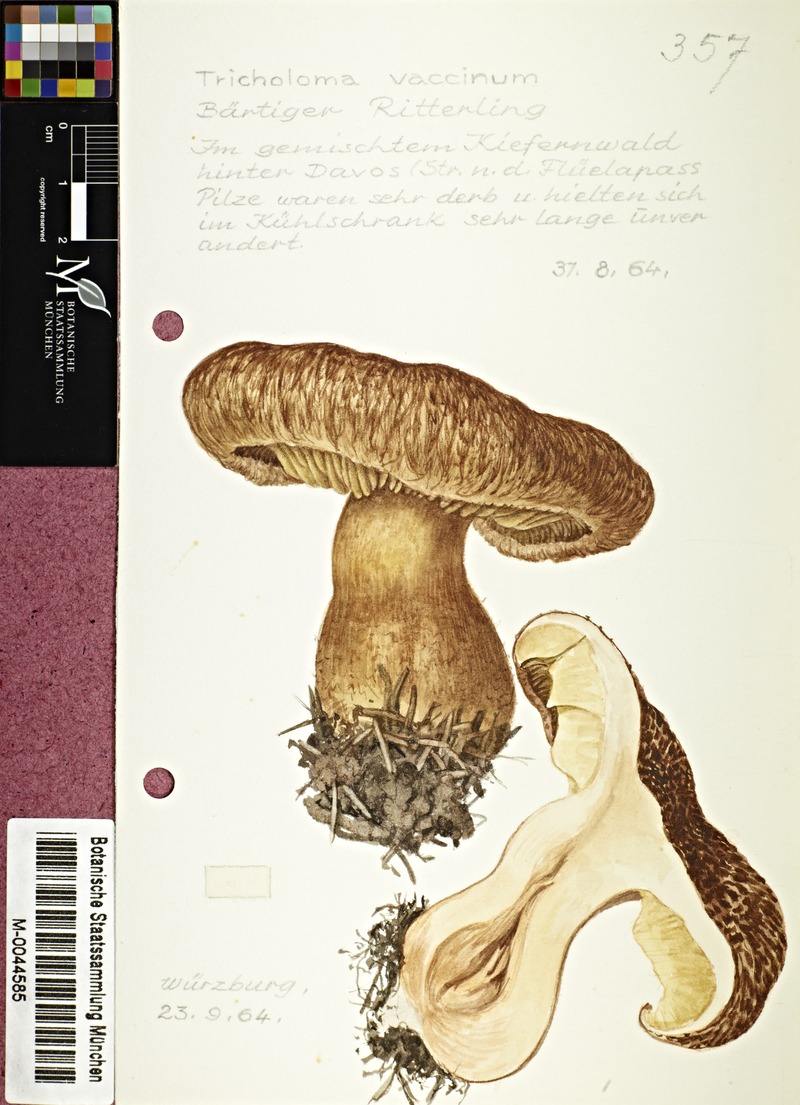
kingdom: Fungi
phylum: Basidiomycota
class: Agaricomycetes
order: Agaricales
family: Tricholomataceae
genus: Tricholoma
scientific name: Tricholoma vaccinum
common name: Scaly knight
